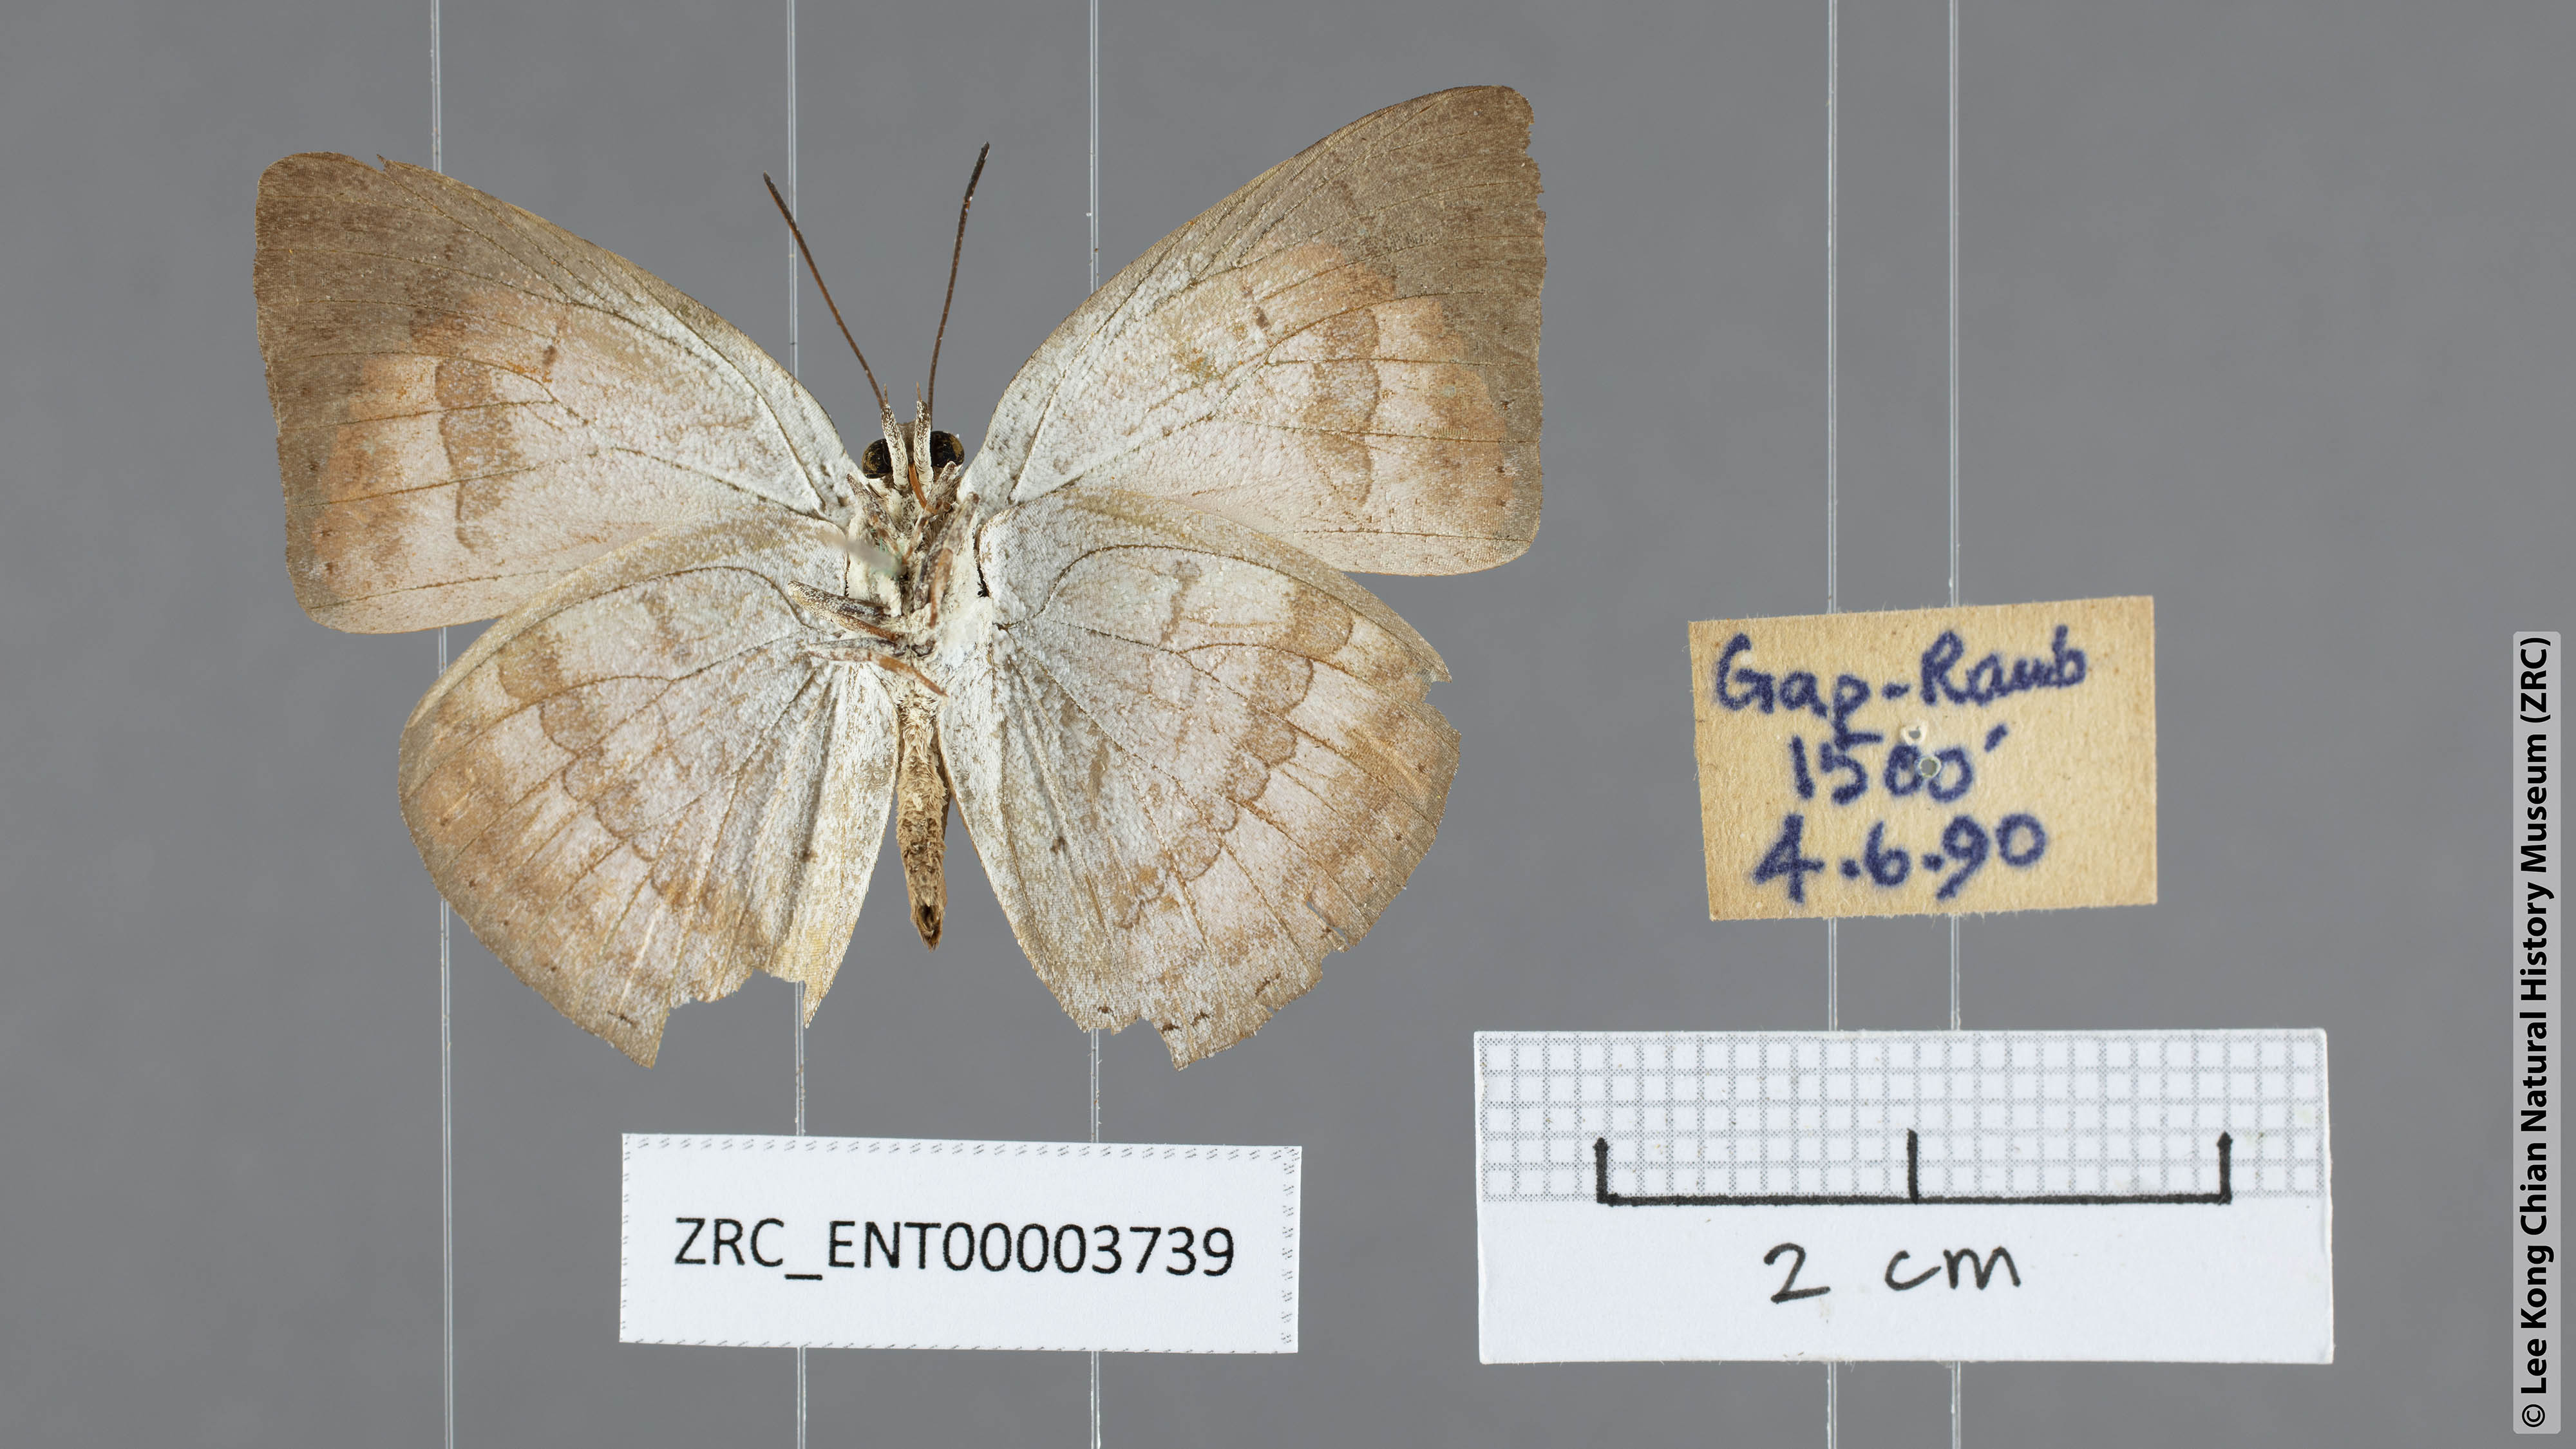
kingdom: Animalia
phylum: Arthropoda
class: Insecta
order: Lepidoptera
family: Lycaenidae
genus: Curetis
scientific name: Curetis regula
